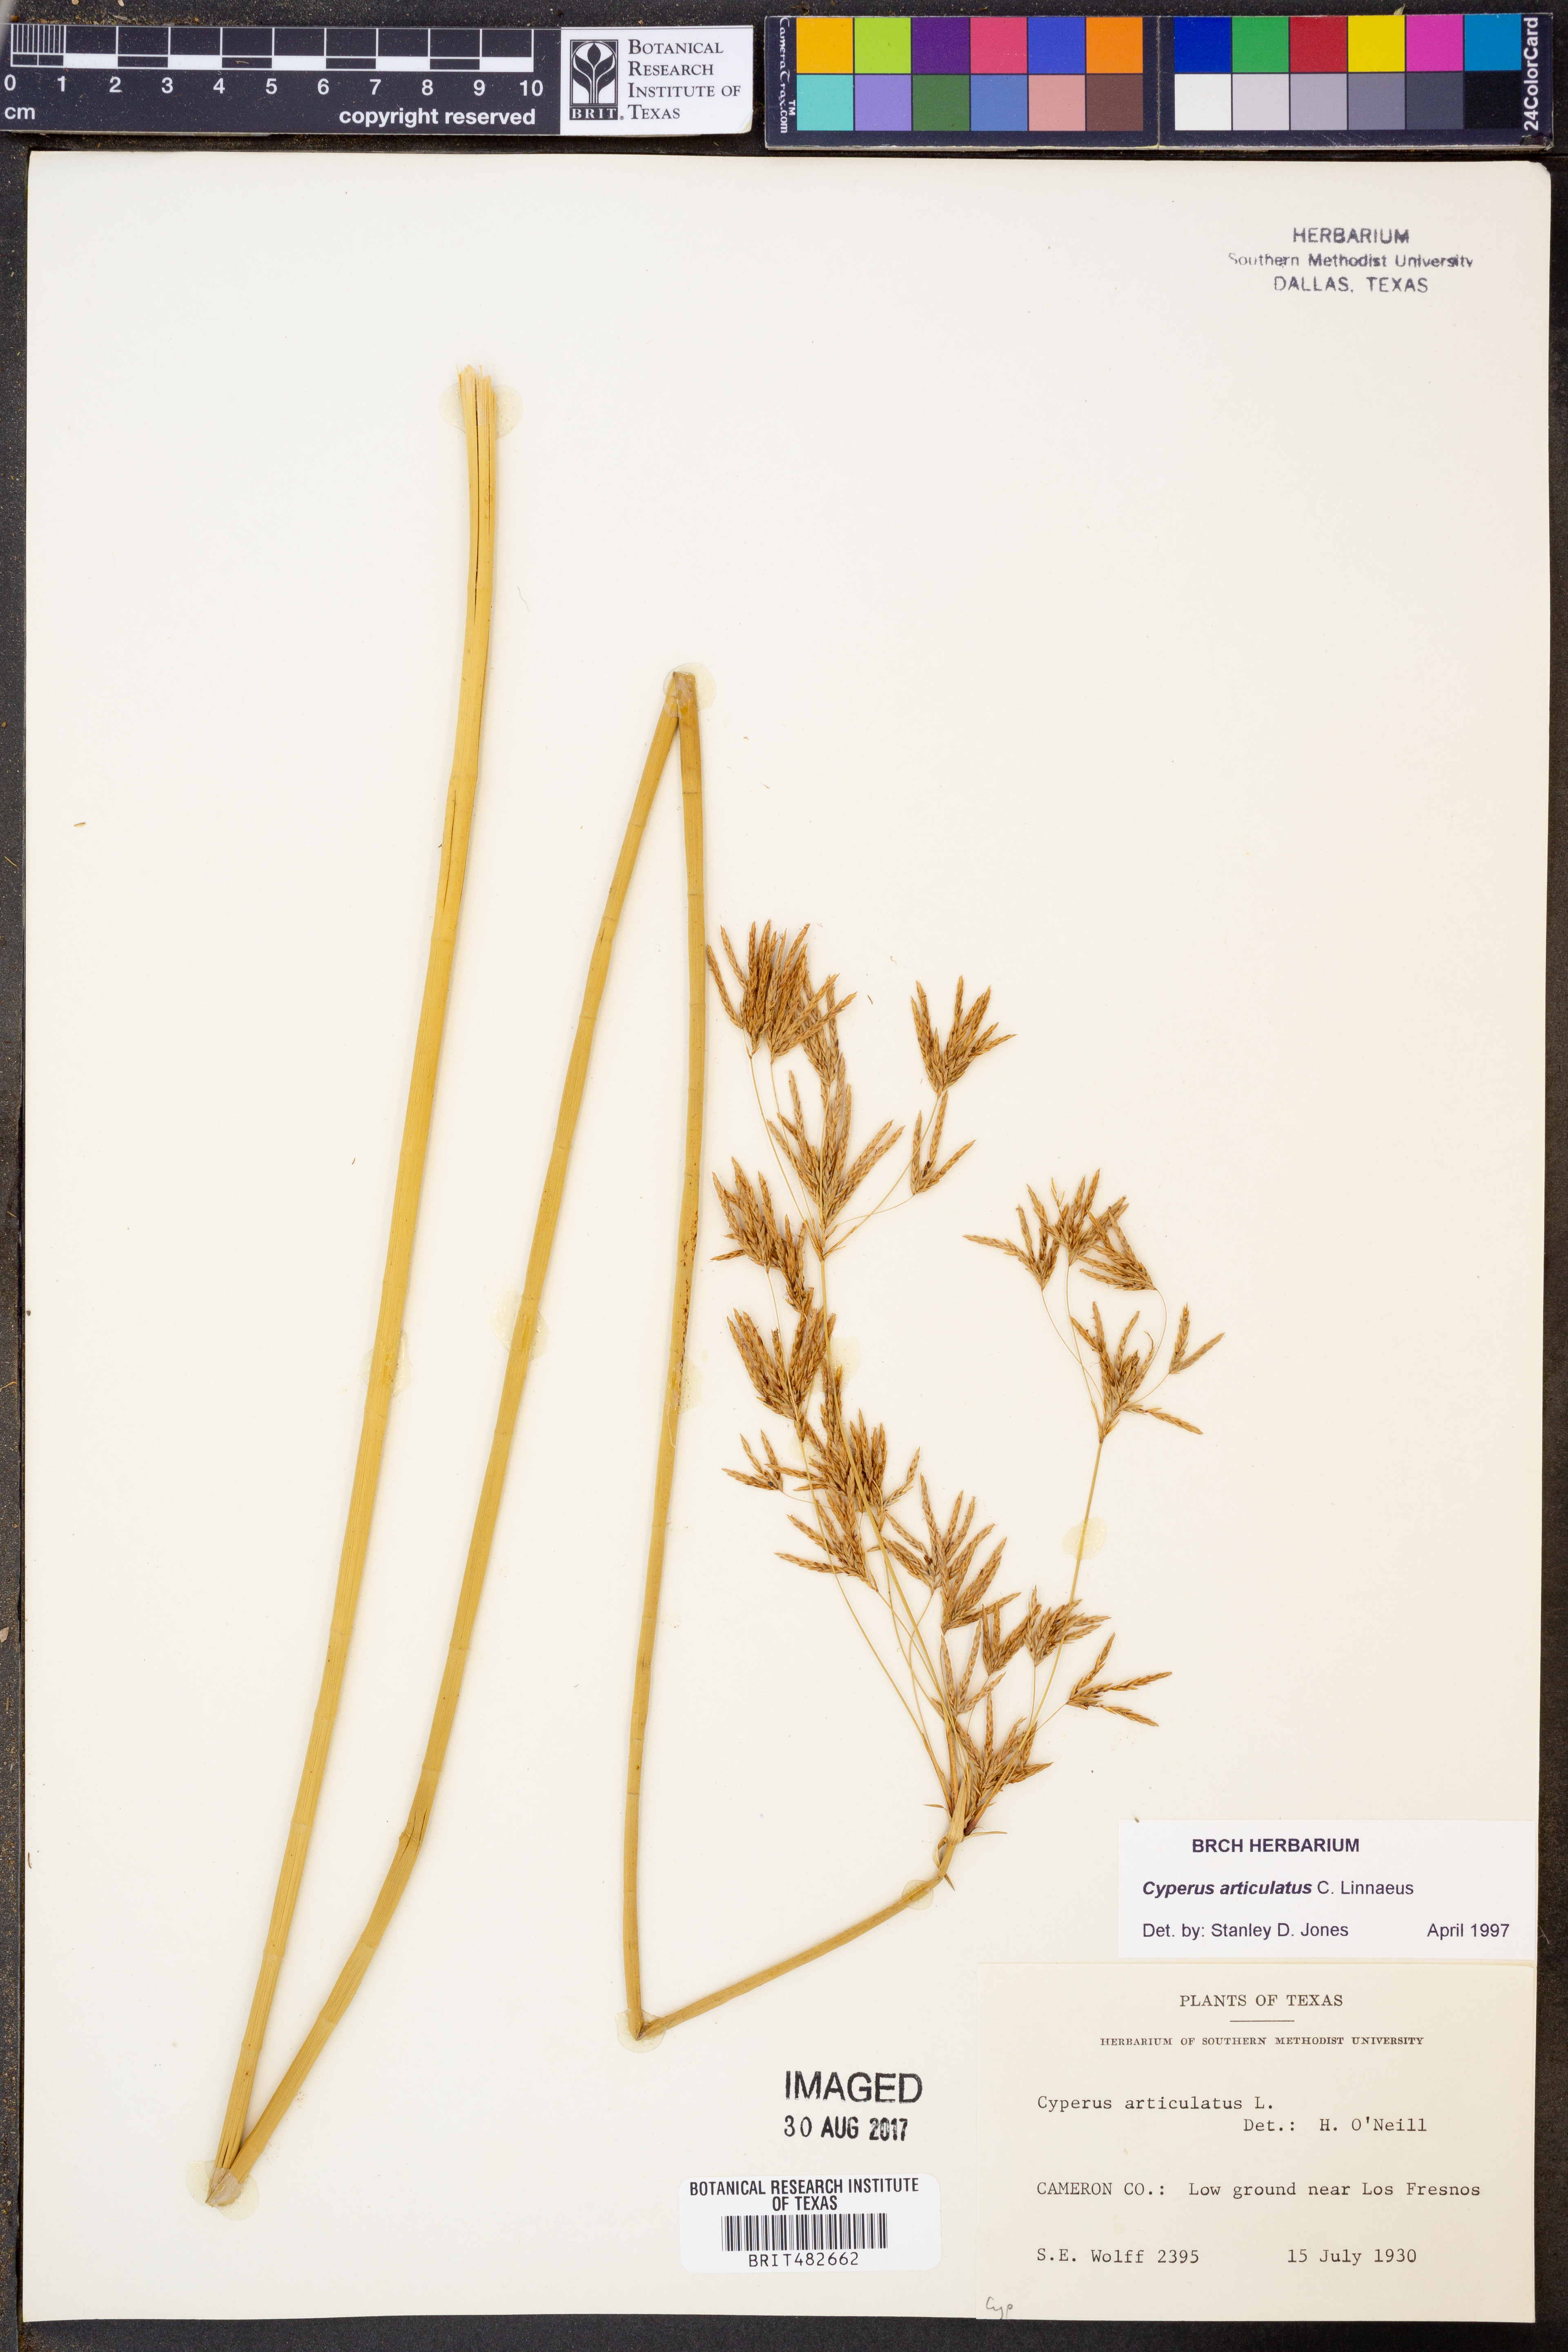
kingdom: Plantae
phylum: Tracheophyta
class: Liliopsida
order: Poales
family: Cyperaceae
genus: Cyperus
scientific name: Cyperus articulatus
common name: Jointed flatsedge
